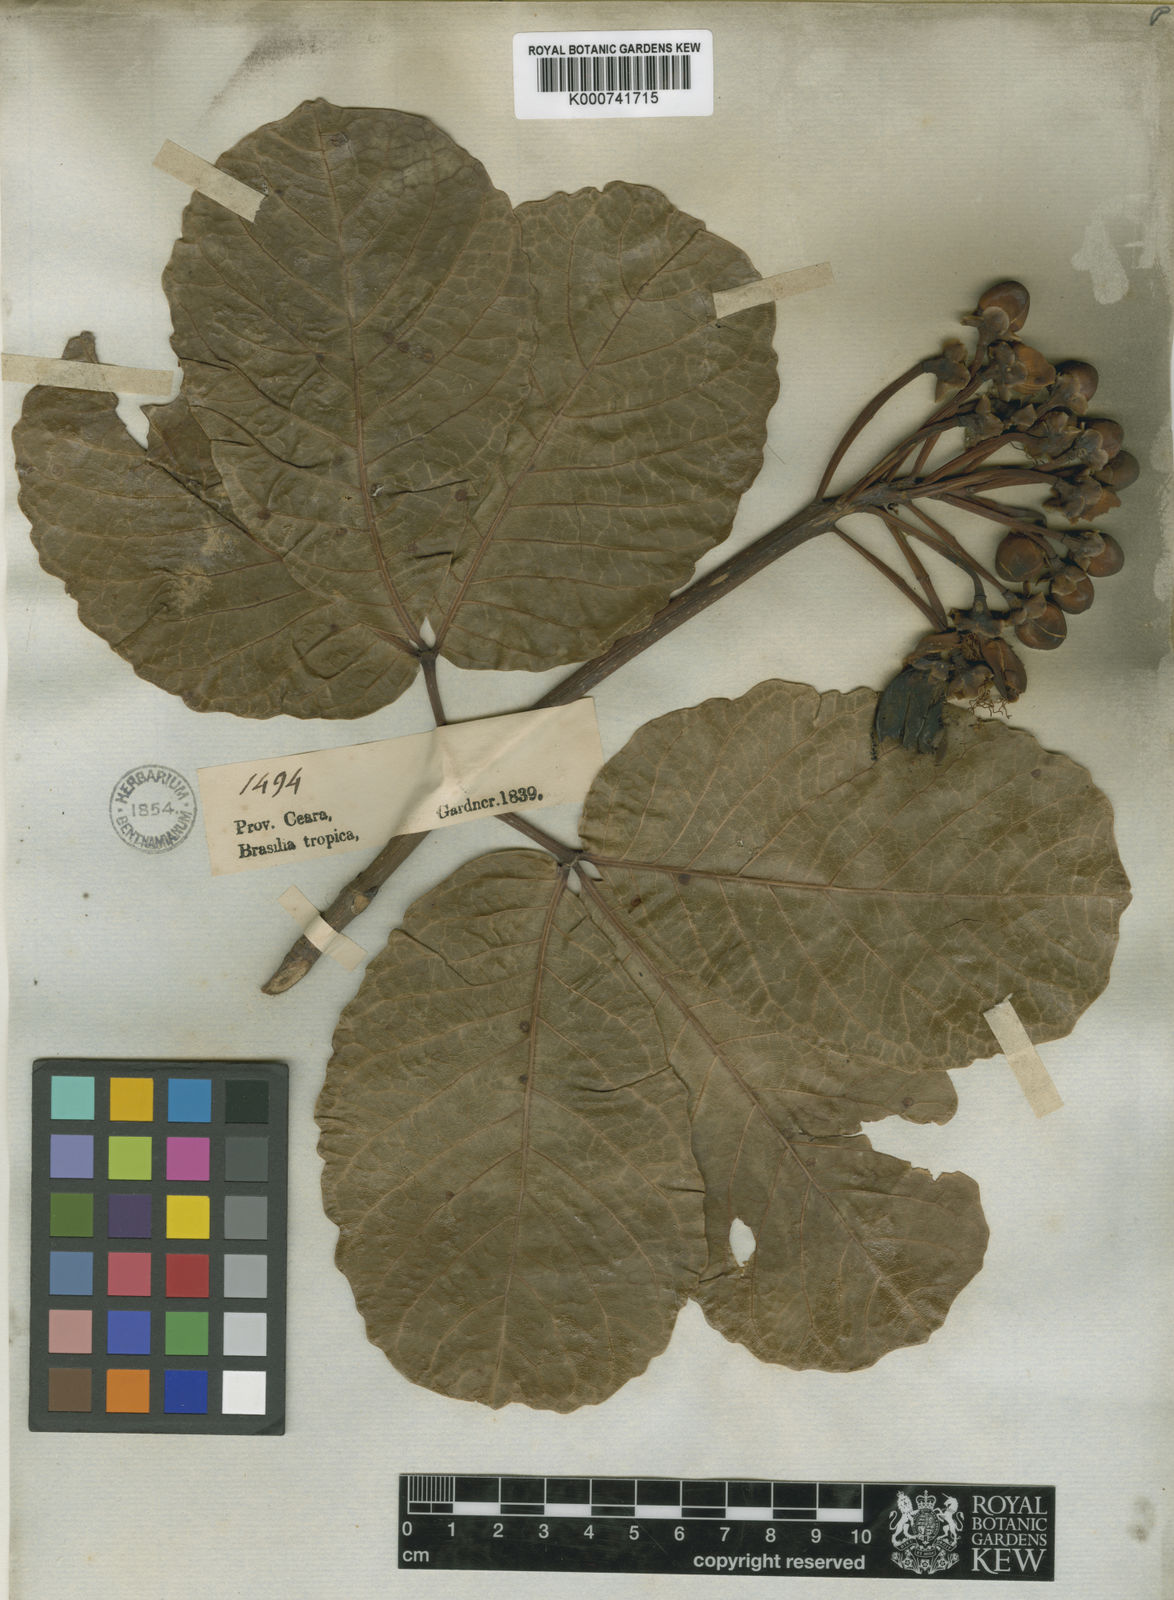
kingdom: Plantae
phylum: Tracheophyta
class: Magnoliopsida
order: Malpighiales
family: Caryocaraceae
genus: Caryocar
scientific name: Caryocar coriaceum
